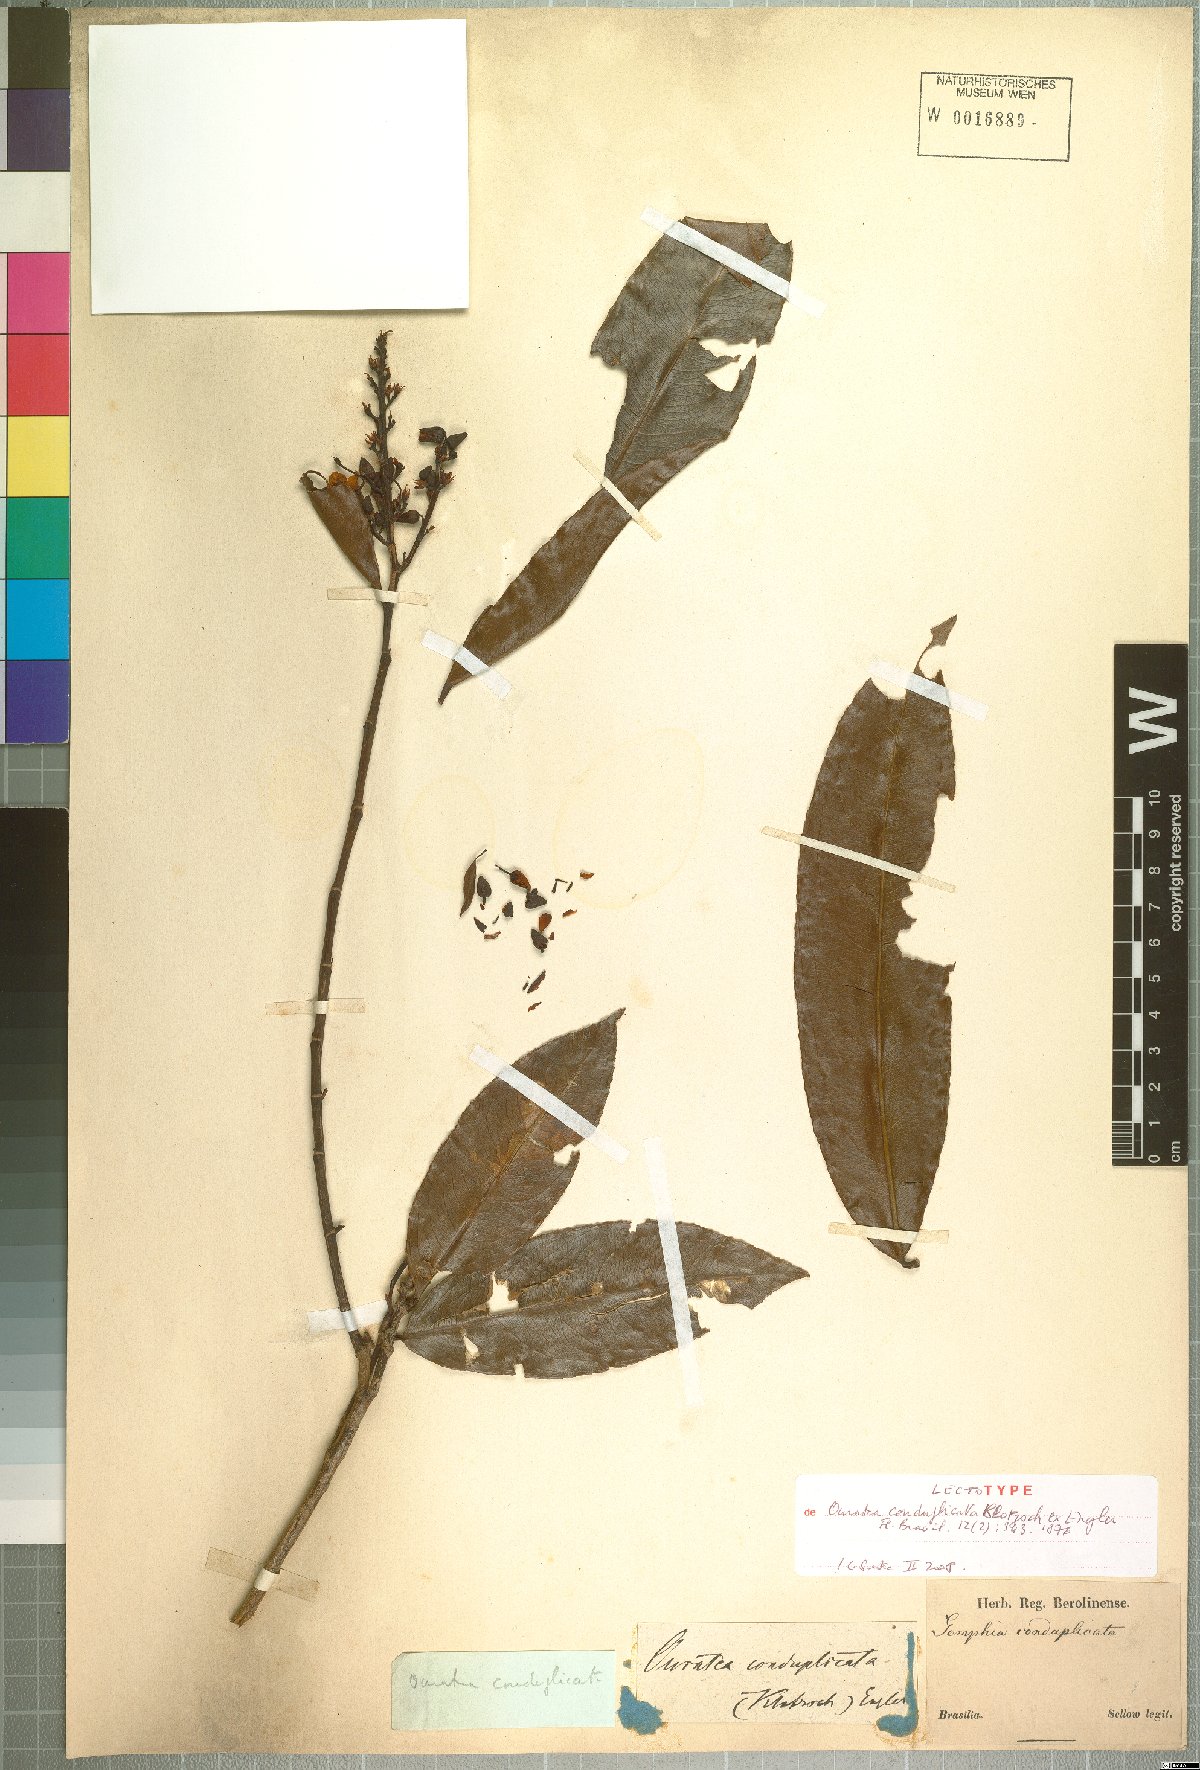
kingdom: Plantae
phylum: Tracheophyta
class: Magnoliopsida
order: Malpighiales
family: Ochnaceae
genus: Ouratea
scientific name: Ouratea conduplicata
